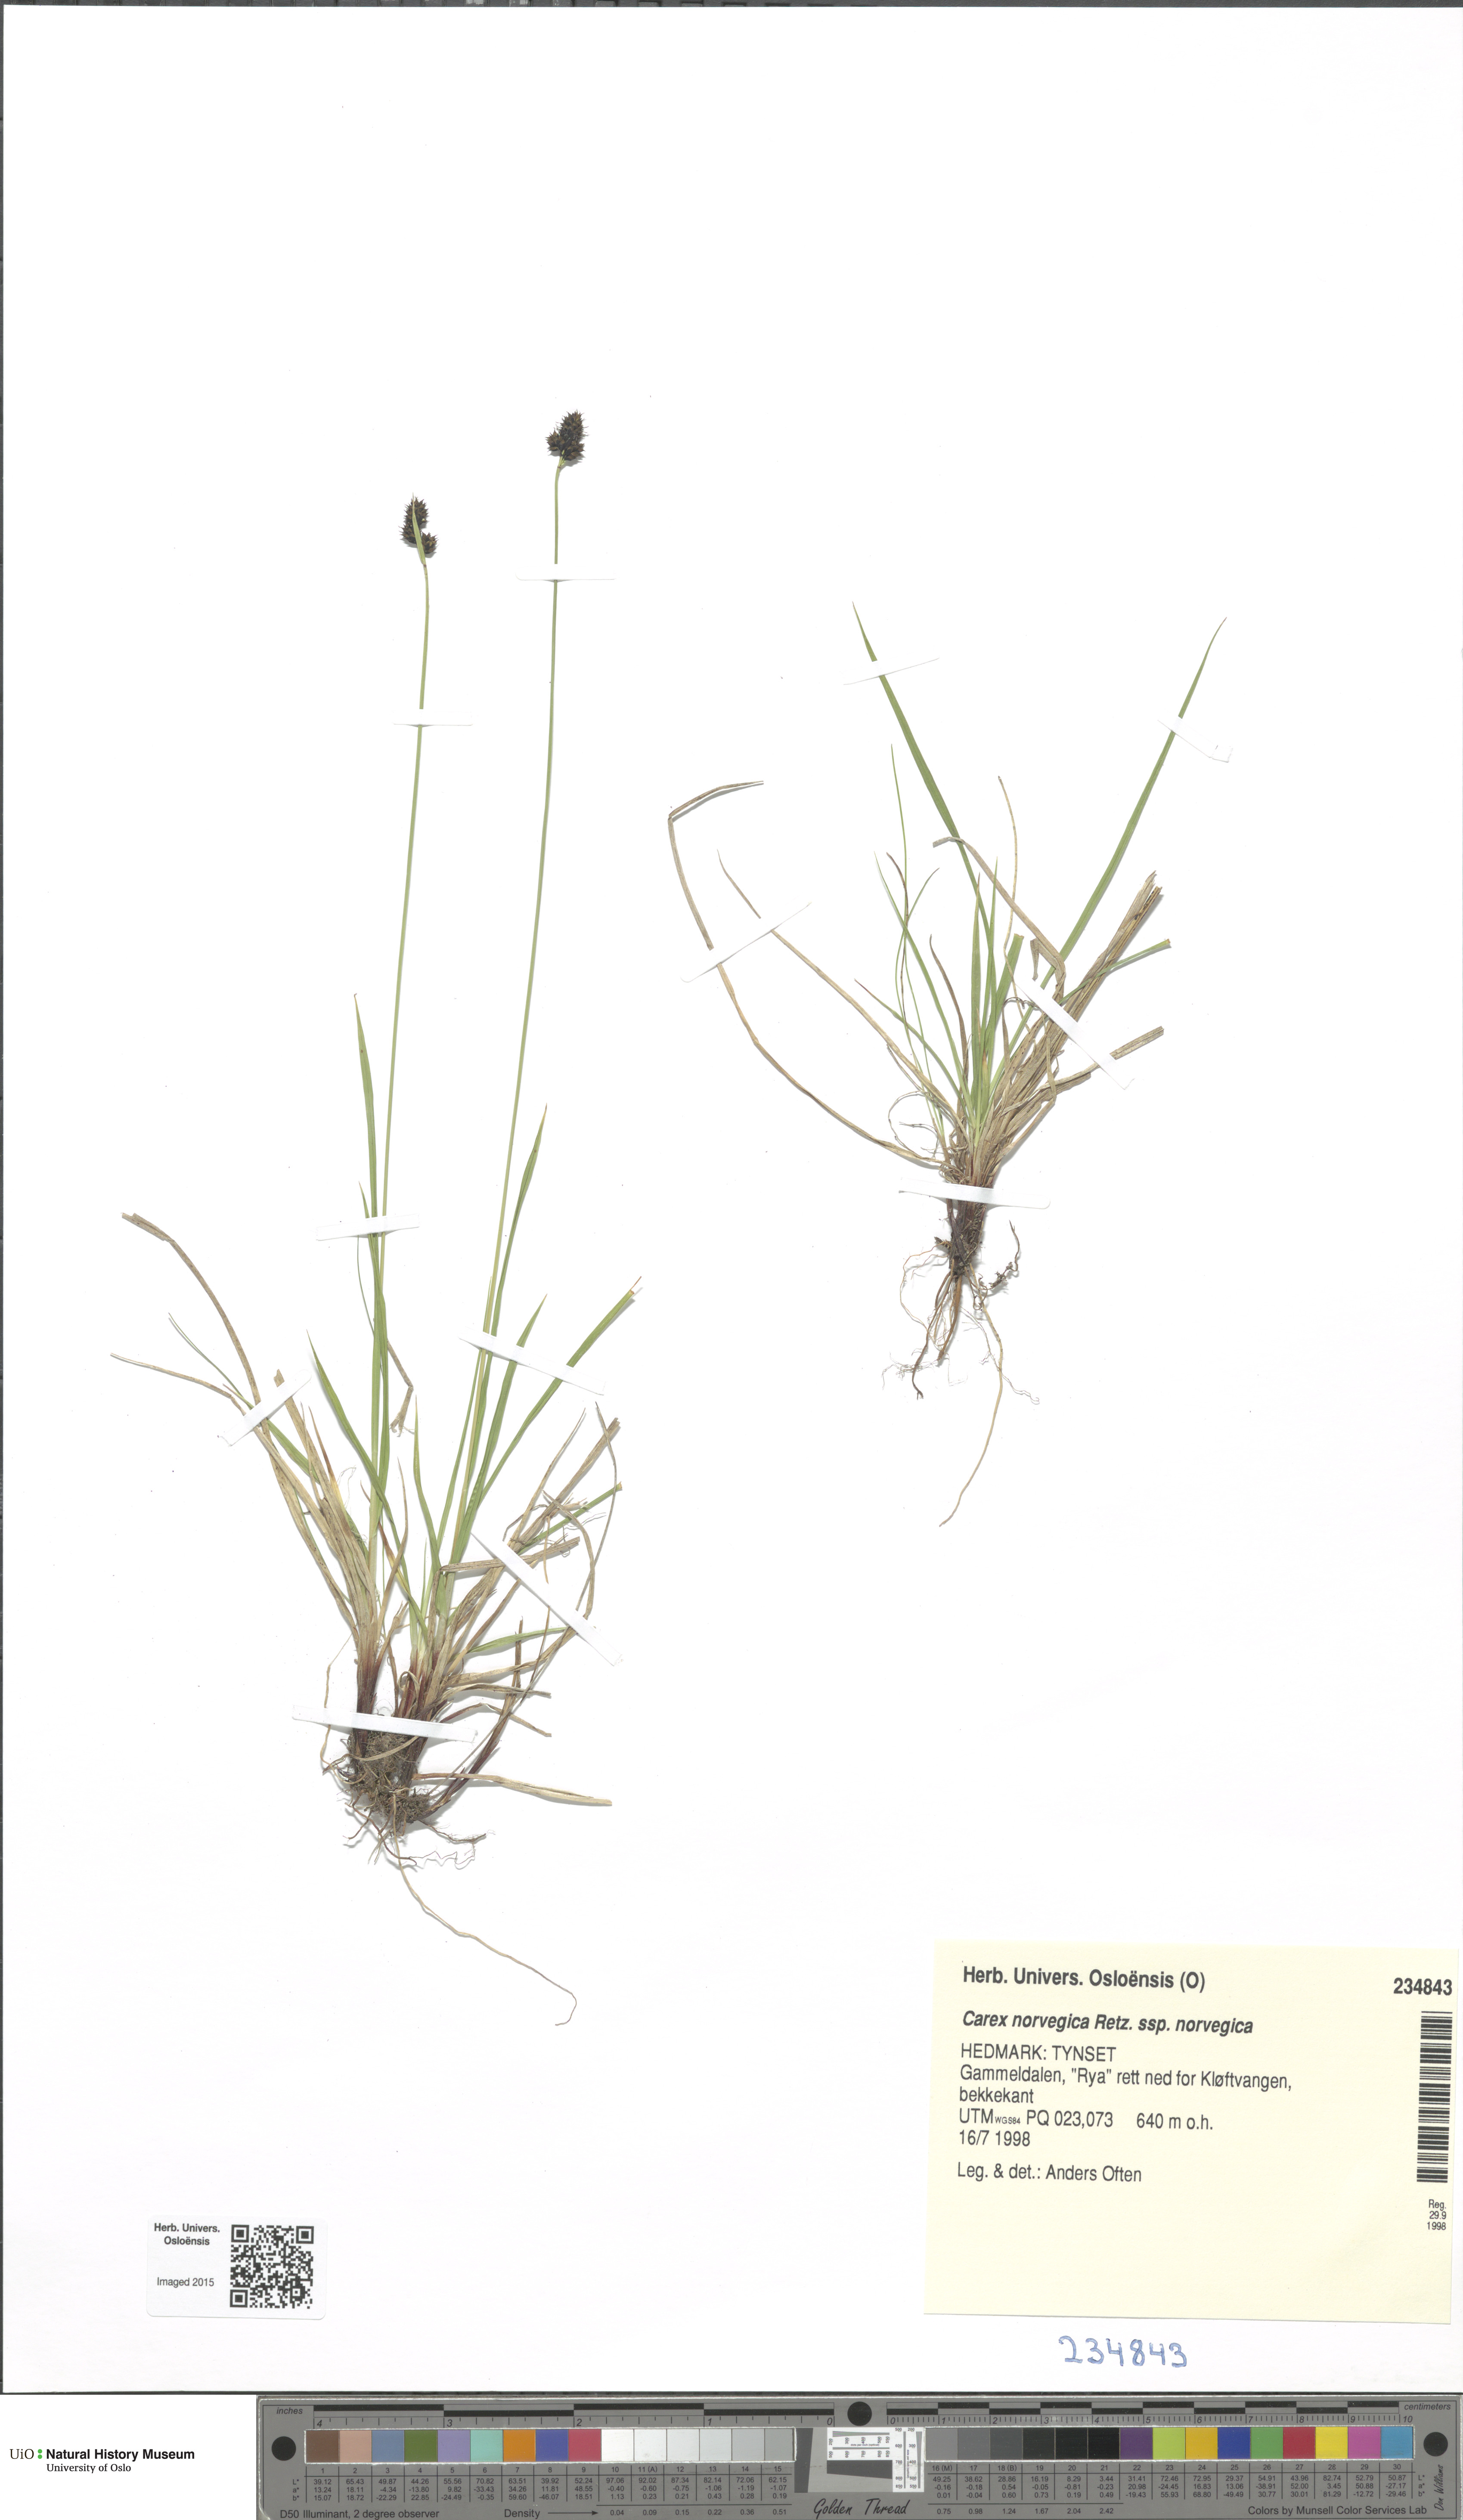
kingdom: Plantae
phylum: Tracheophyta
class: Liliopsida
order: Poales
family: Cyperaceae
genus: Carex
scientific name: Carex norvegica
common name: Close-headed alpine-sedge
